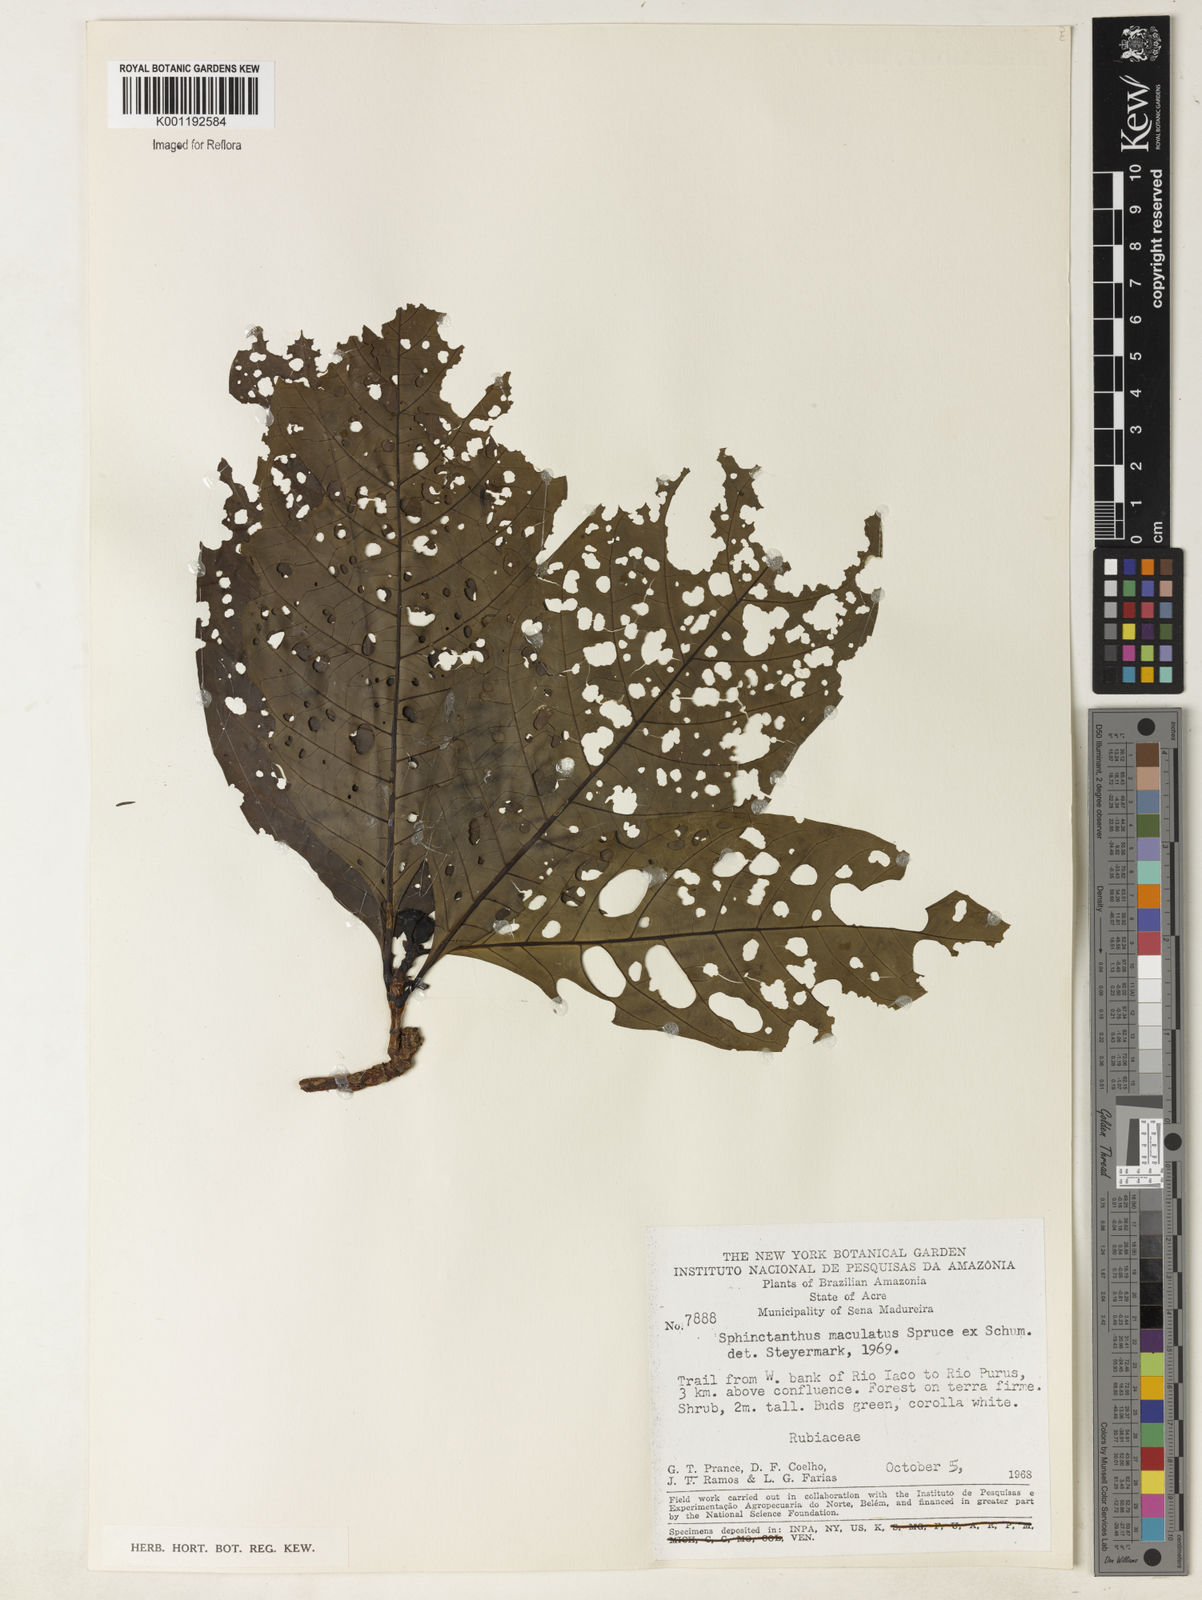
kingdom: Plantae
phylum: Tracheophyta
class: Magnoliopsida
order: Gentianales
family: Rubiaceae
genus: Sphinctanthus
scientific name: Sphinctanthus maculatus
